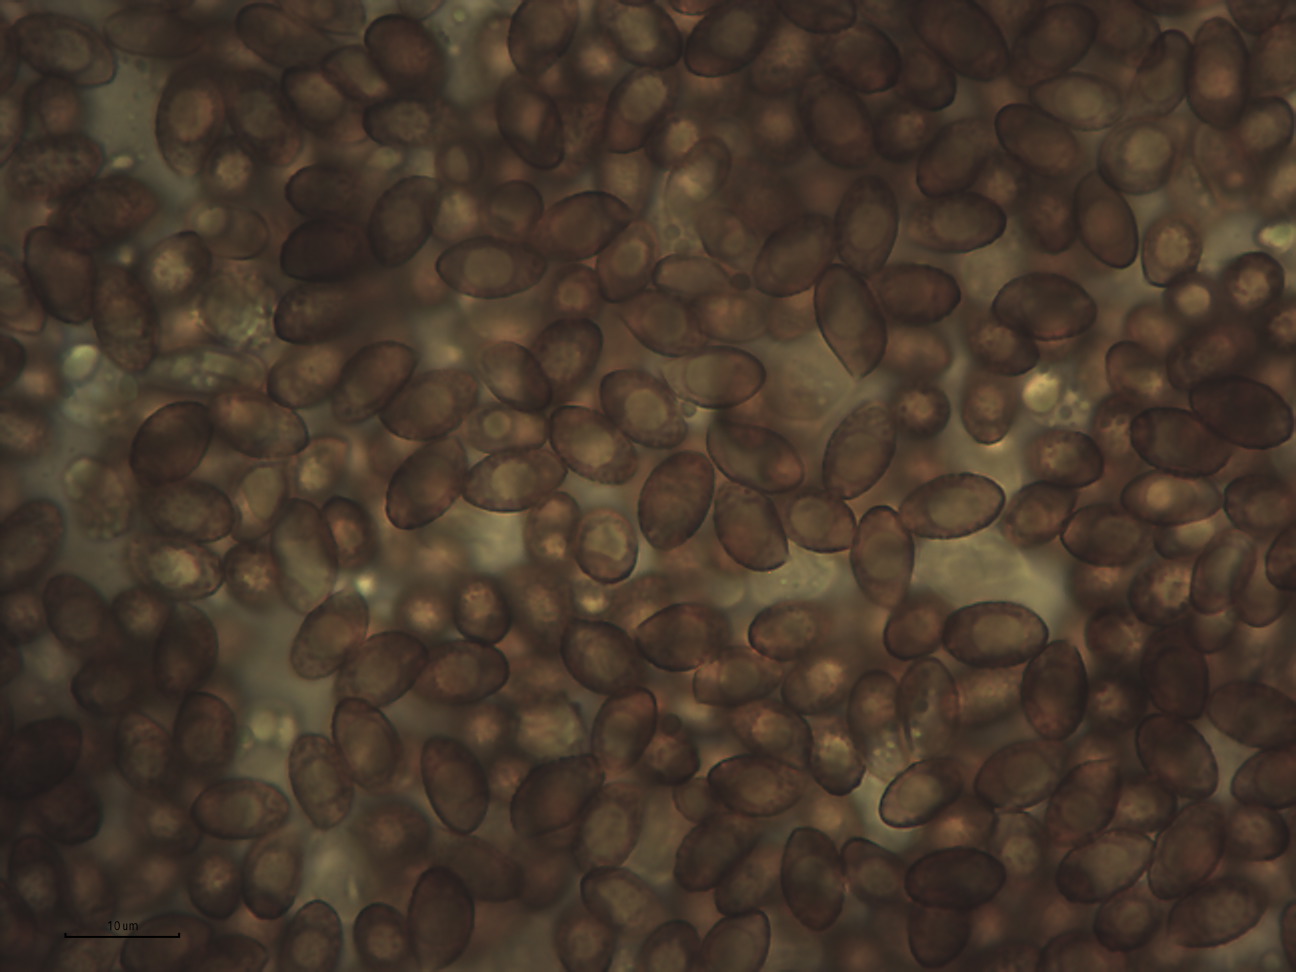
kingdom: Fungi
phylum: Basidiomycota
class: Agaricomycetes
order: Agaricales
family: Cortinariaceae
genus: Cortinarius
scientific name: Cortinarius
